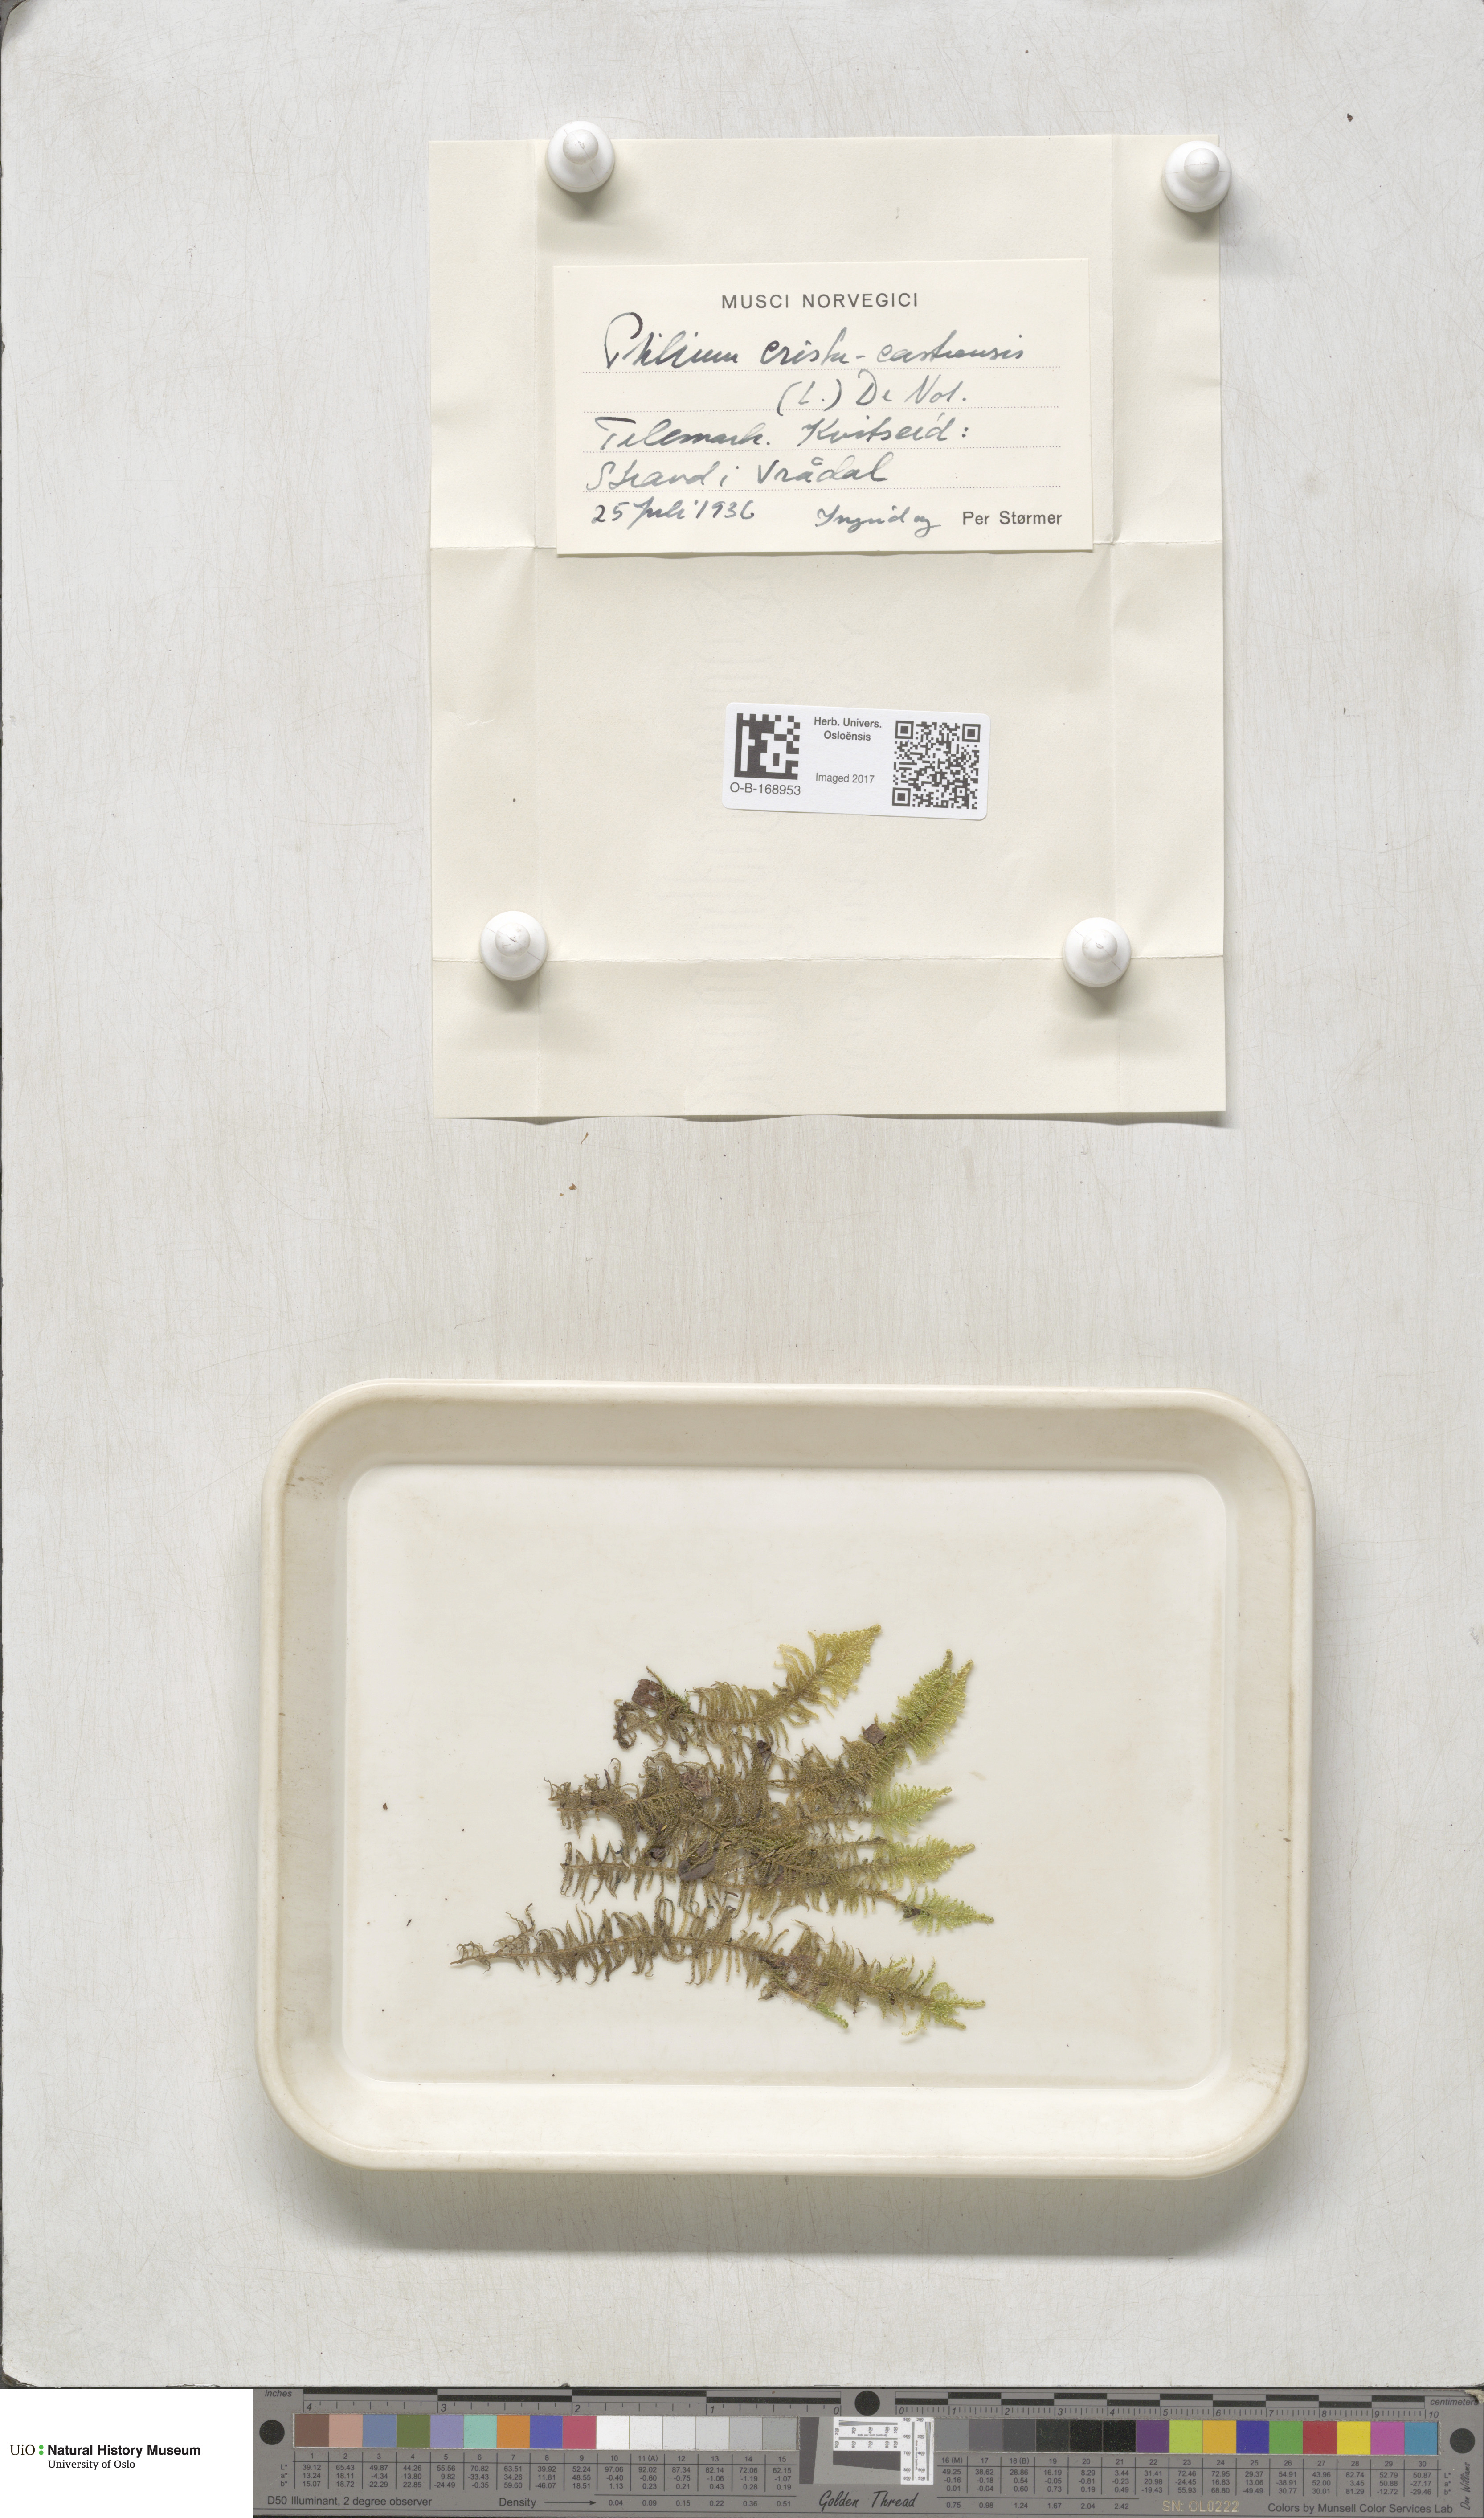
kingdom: Plantae
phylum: Bryophyta
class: Bryopsida
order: Hypnales
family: Pylaisiaceae
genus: Ptilium
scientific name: Ptilium crista-castrensis
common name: Knight's plume moss
